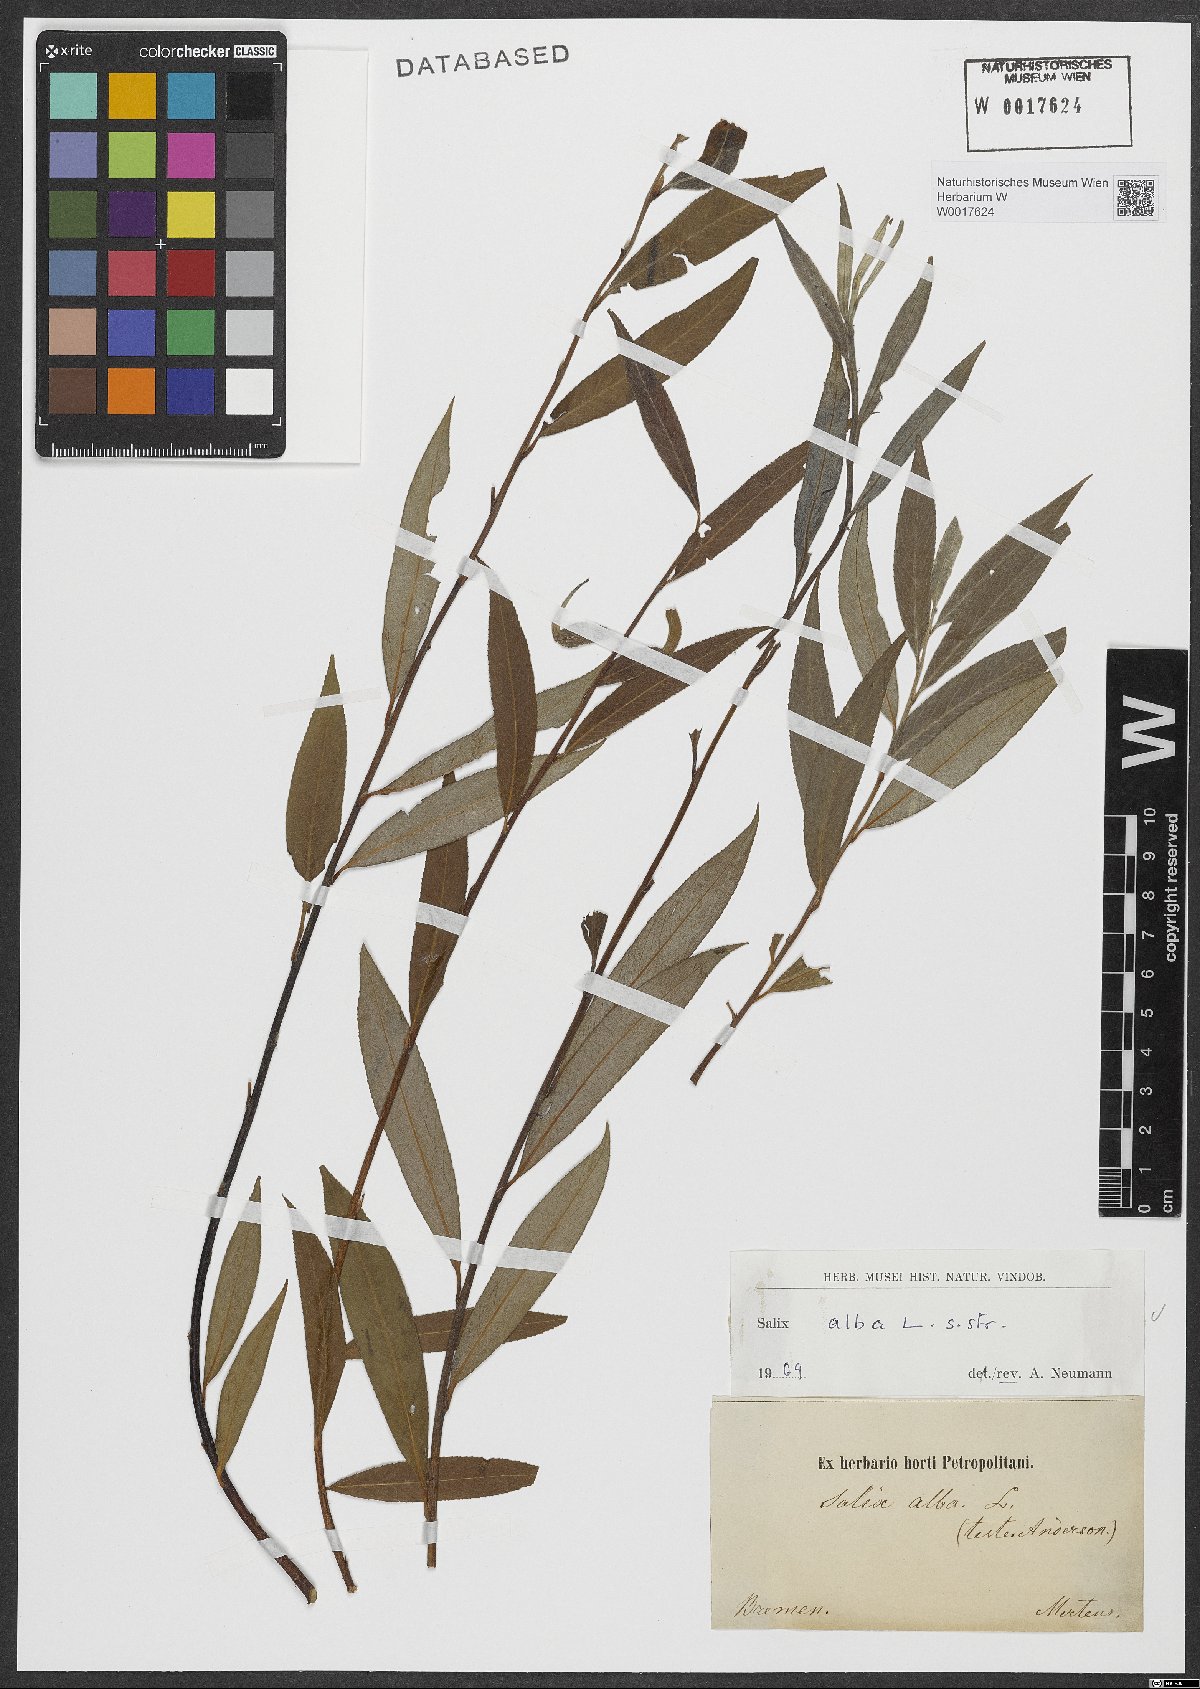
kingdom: Plantae
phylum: Tracheophyta
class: Magnoliopsida
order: Malpighiales
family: Salicaceae
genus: Salix
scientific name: Salix alba
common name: White willow
